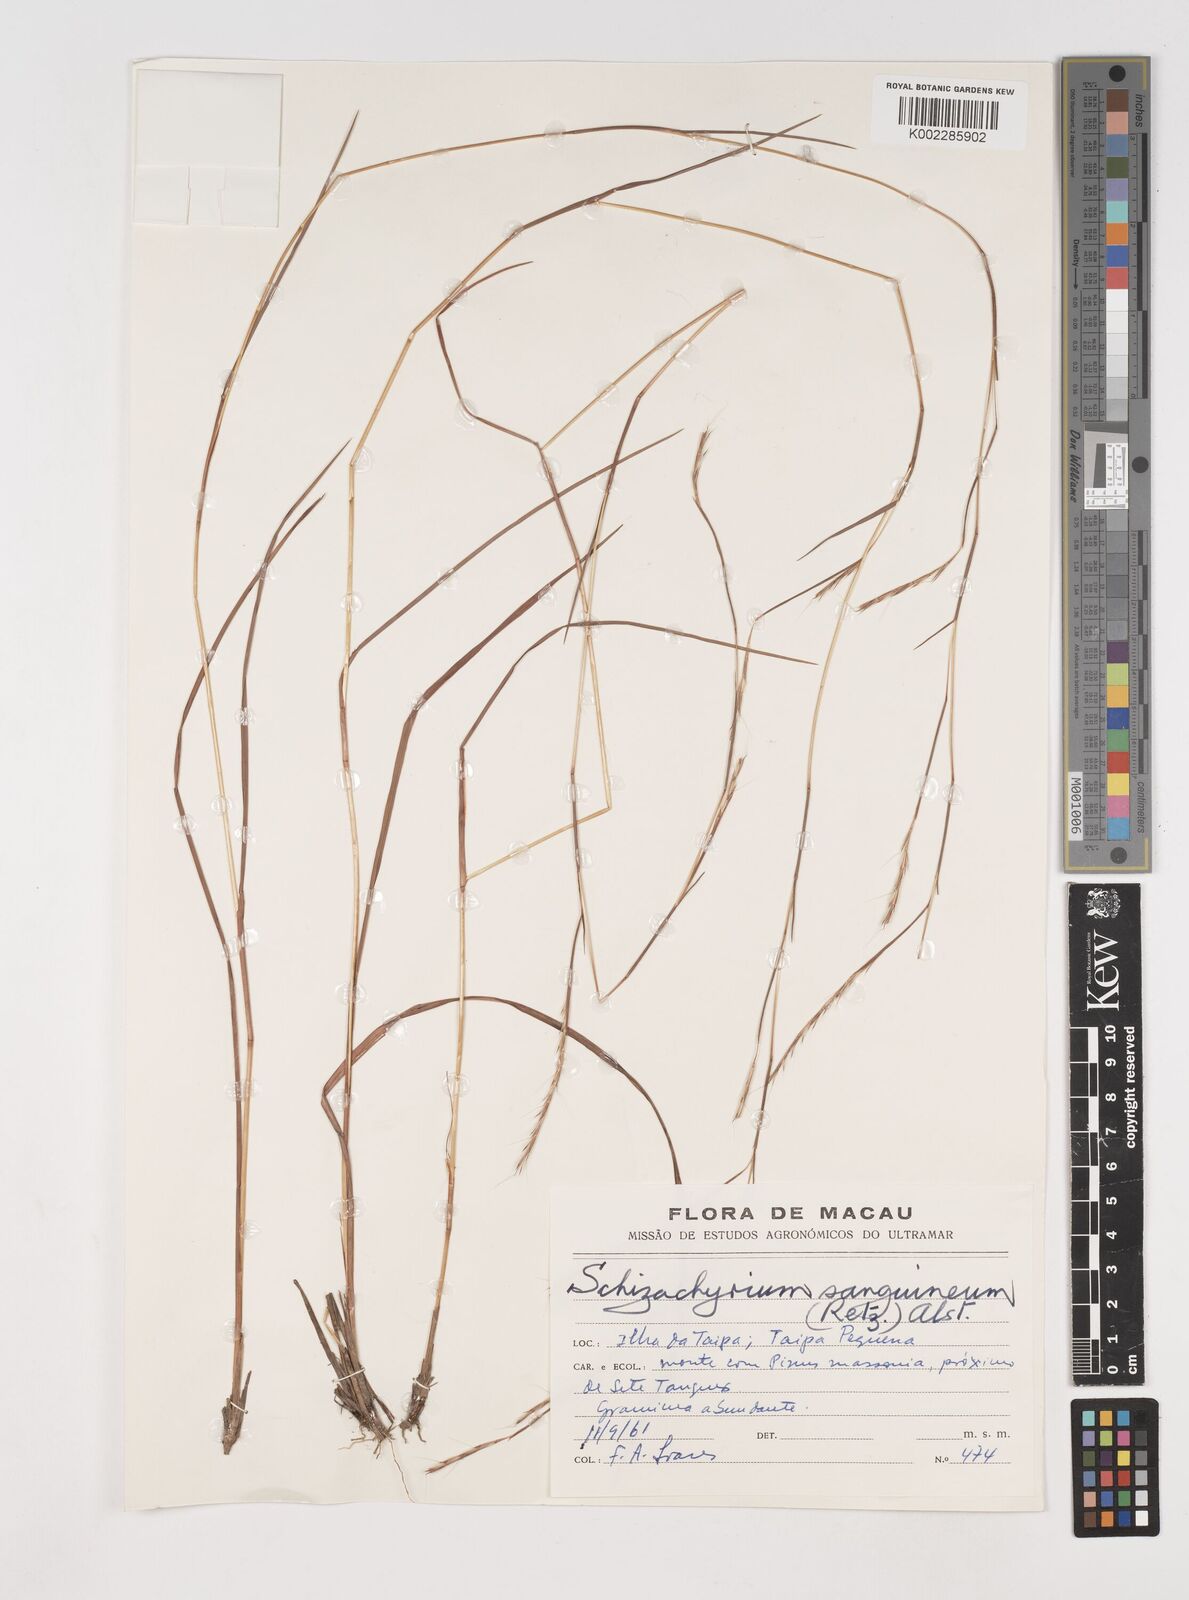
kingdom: Plantae
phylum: Tracheophyta
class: Liliopsida
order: Poales
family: Poaceae
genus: Schizachyrium
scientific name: Schizachyrium sanguineum
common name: Crimson bluestem
